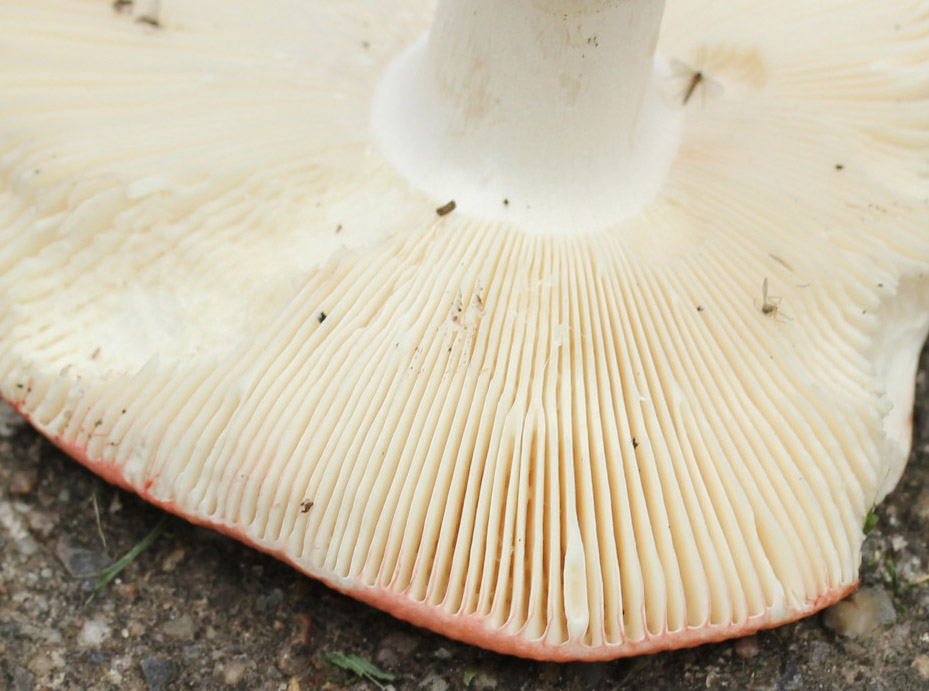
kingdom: Fungi
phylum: Basidiomycota
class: Agaricomycetes
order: Russulales
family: Russulaceae
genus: Russula
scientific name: Russula aurora
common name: rosa skørhat
